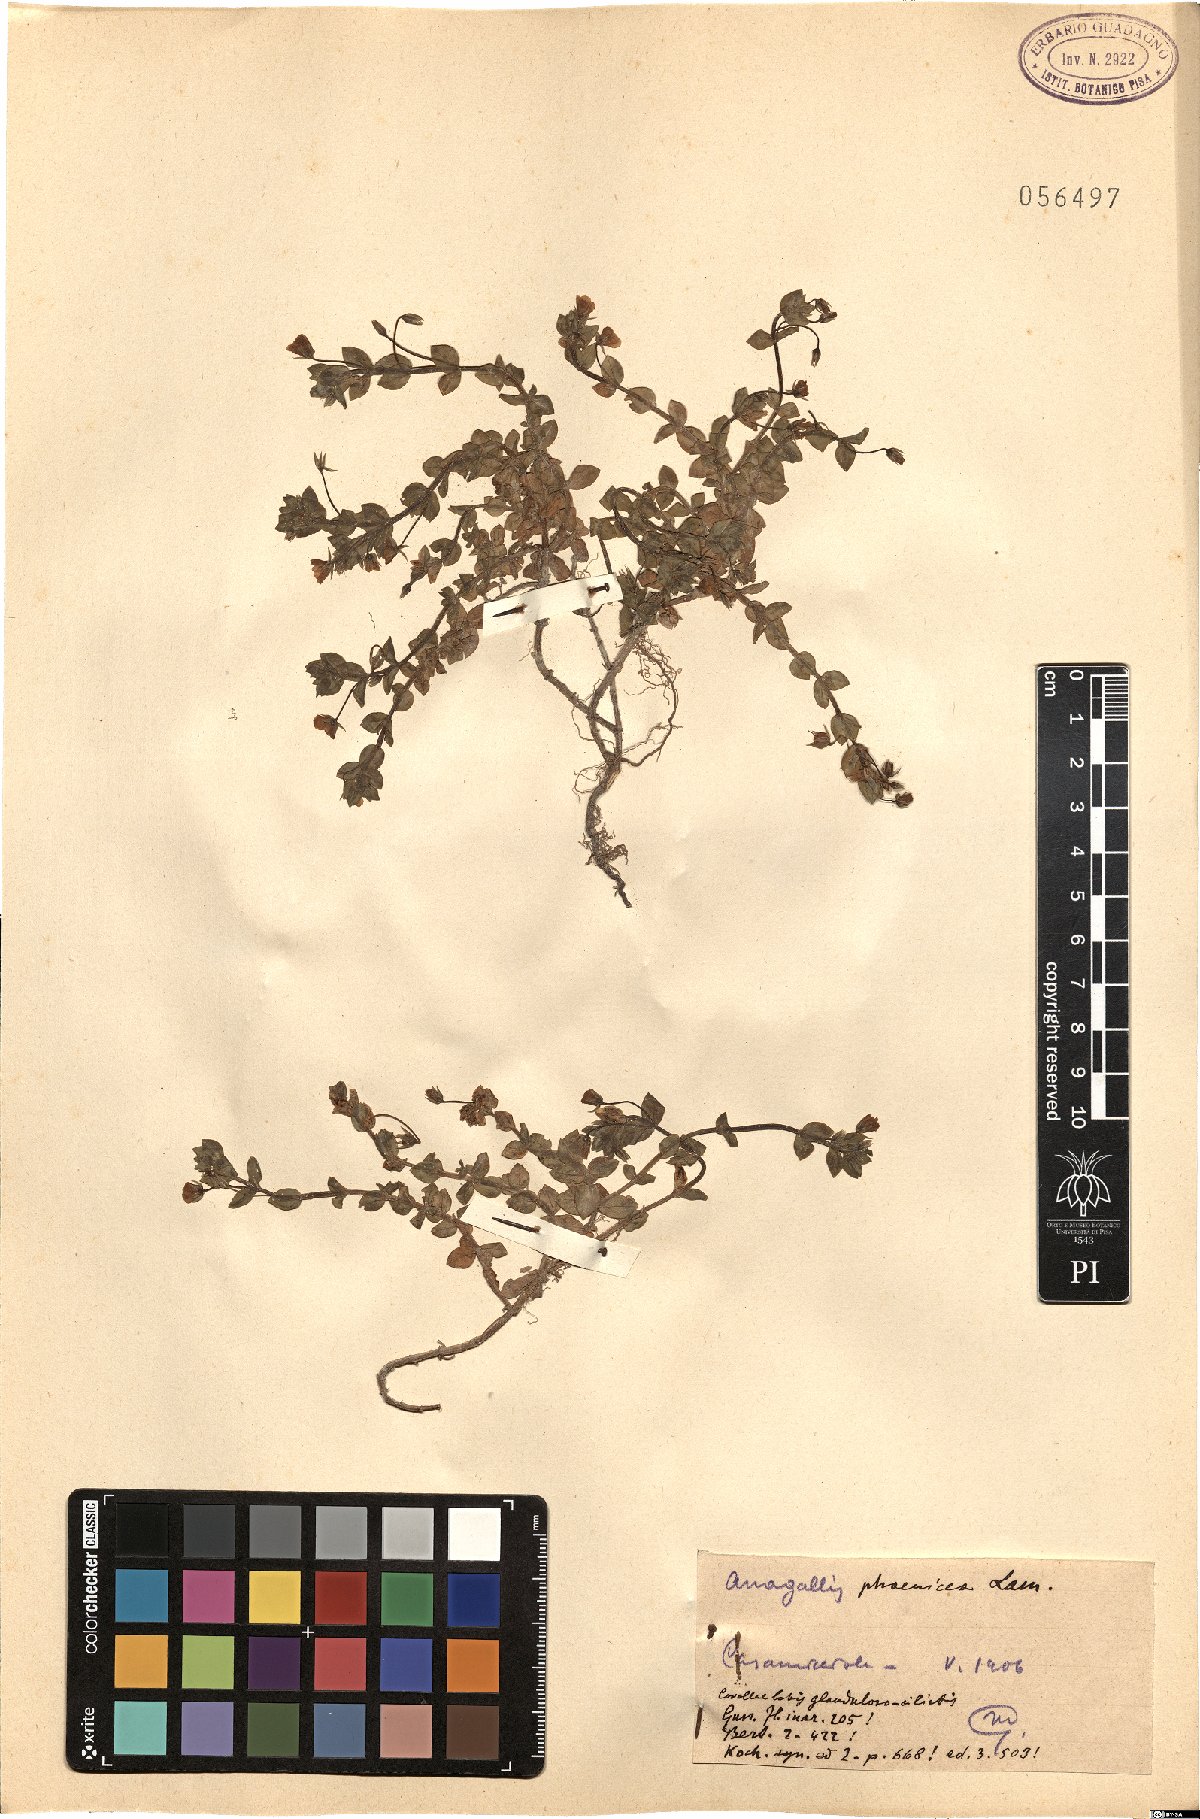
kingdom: Plantae
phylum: Tracheophyta
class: Magnoliopsida
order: Ericales
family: Primulaceae
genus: Lysimachia
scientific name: Lysimachia arvensis
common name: Scarlet pimpernel
